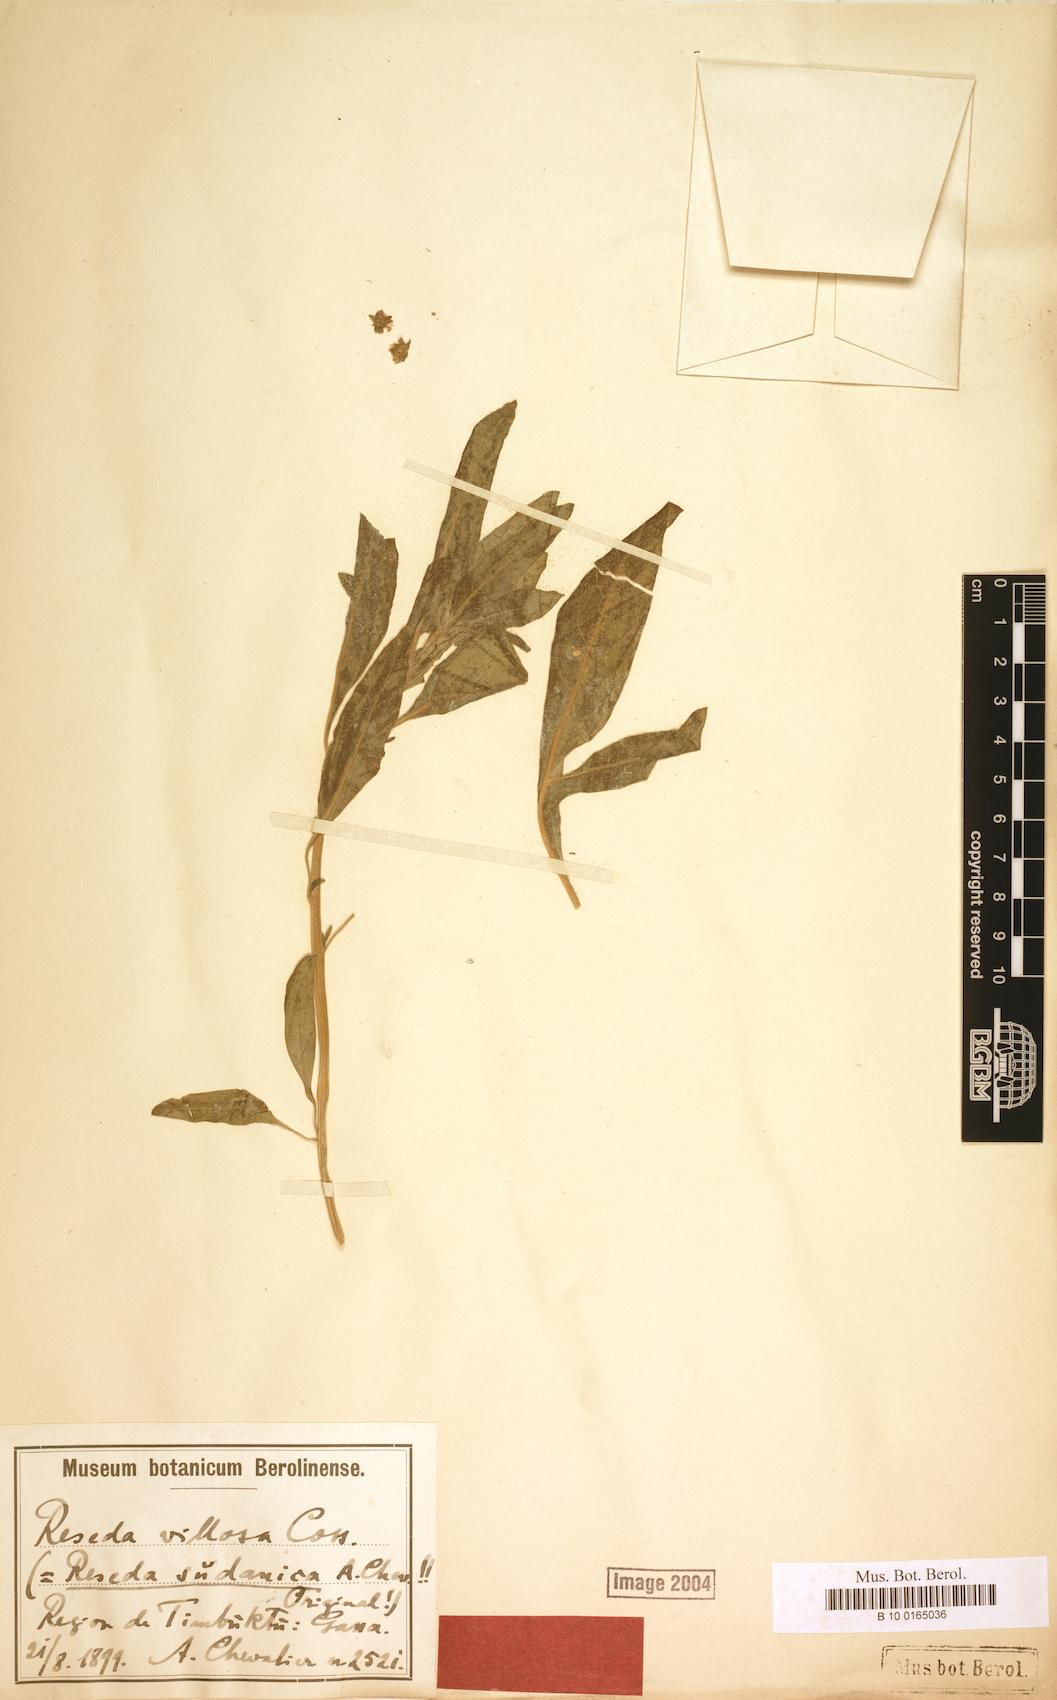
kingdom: Plantae
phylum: Tracheophyta
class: Magnoliopsida
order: Brassicales
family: Resedaceae
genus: Reseda
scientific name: Reseda villosa
